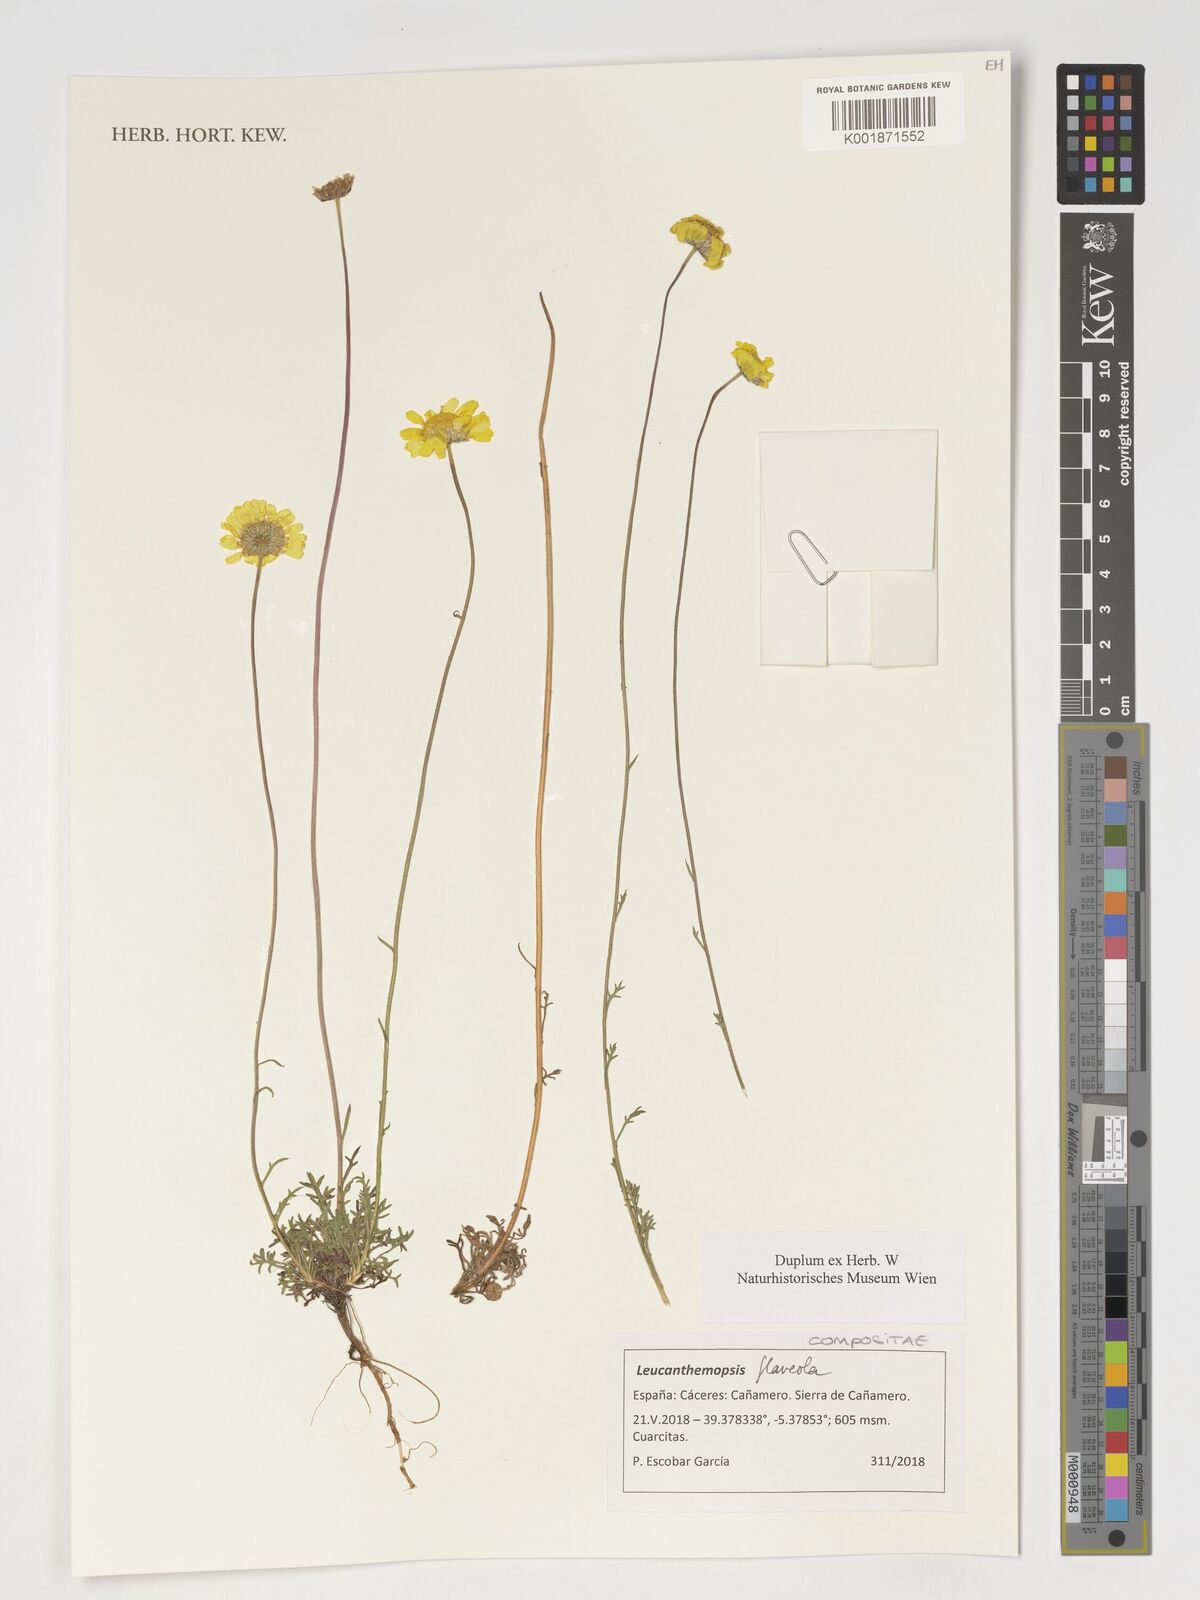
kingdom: Plantae
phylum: Tracheophyta
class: Magnoliopsida
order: Asterales
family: Asteraceae
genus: Leucanthemopsis
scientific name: Leucanthemopsis flaveola
